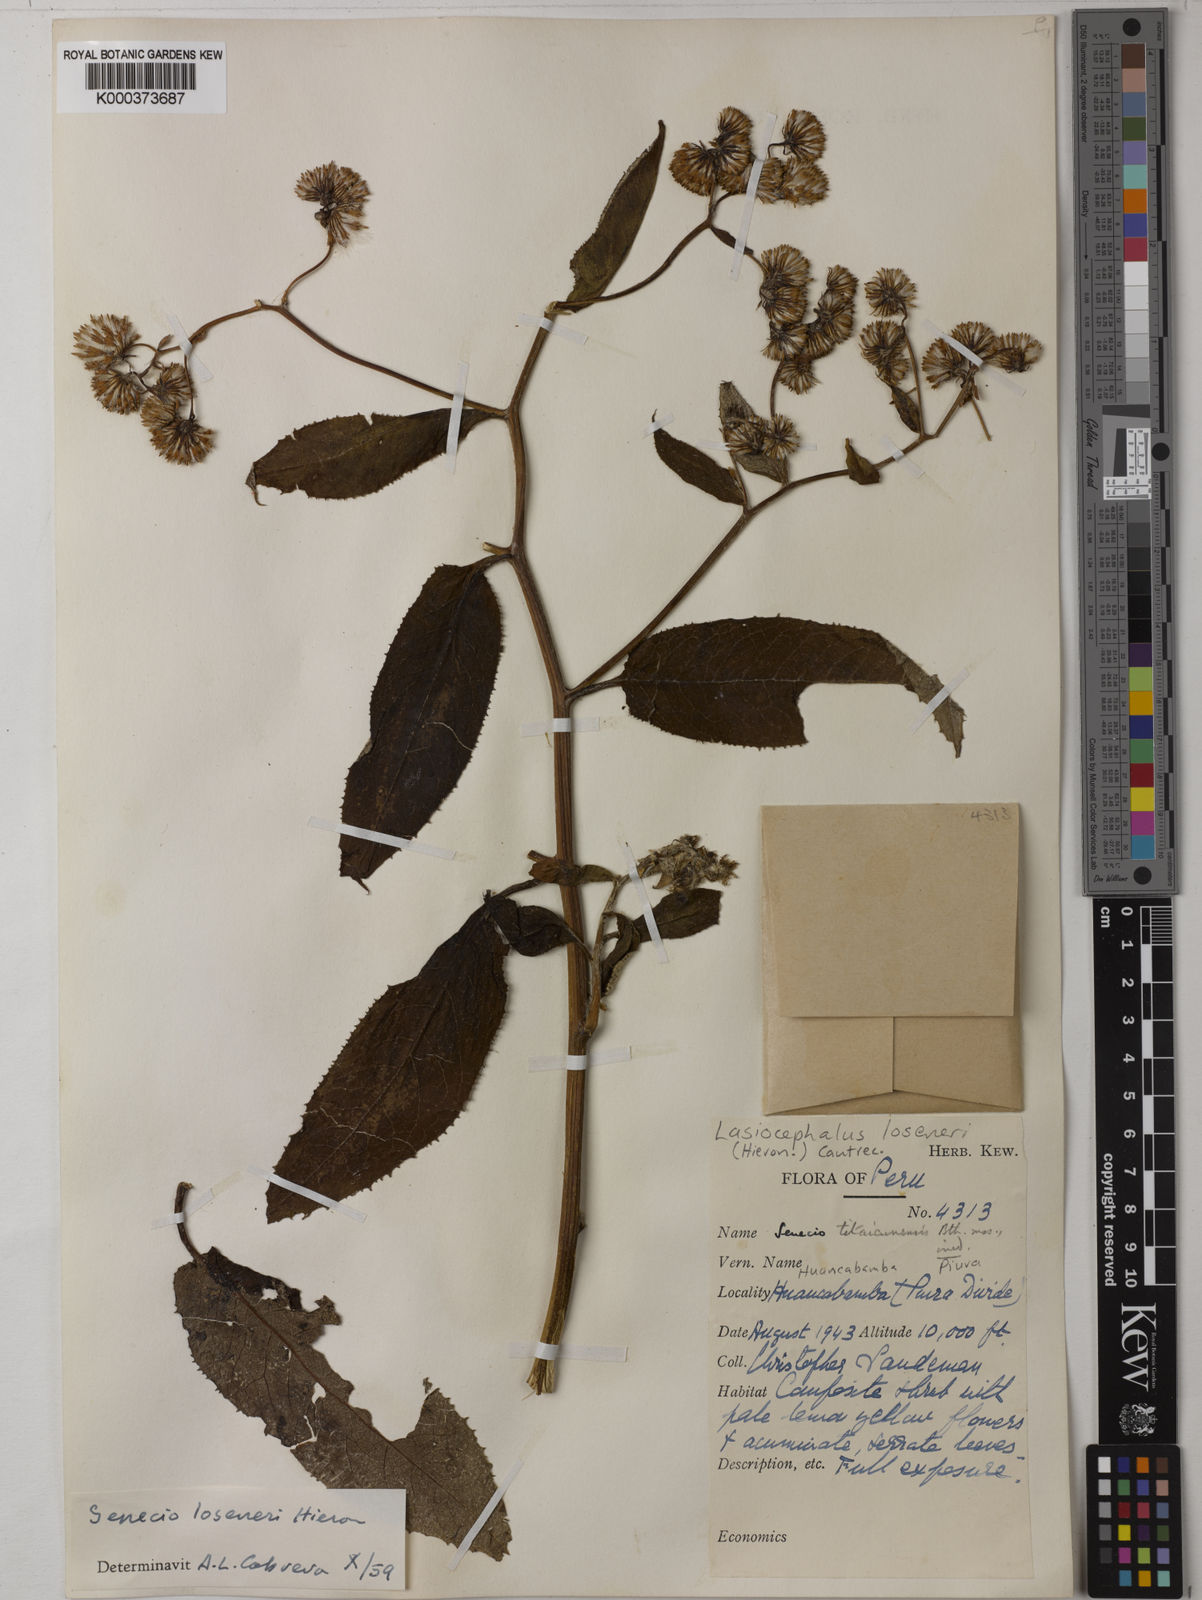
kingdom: Plantae
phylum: Tracheophyta
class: Magnoliopsida
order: Asterales
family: Asteraceae
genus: Lasiocephalus
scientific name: Lasiocephalus
